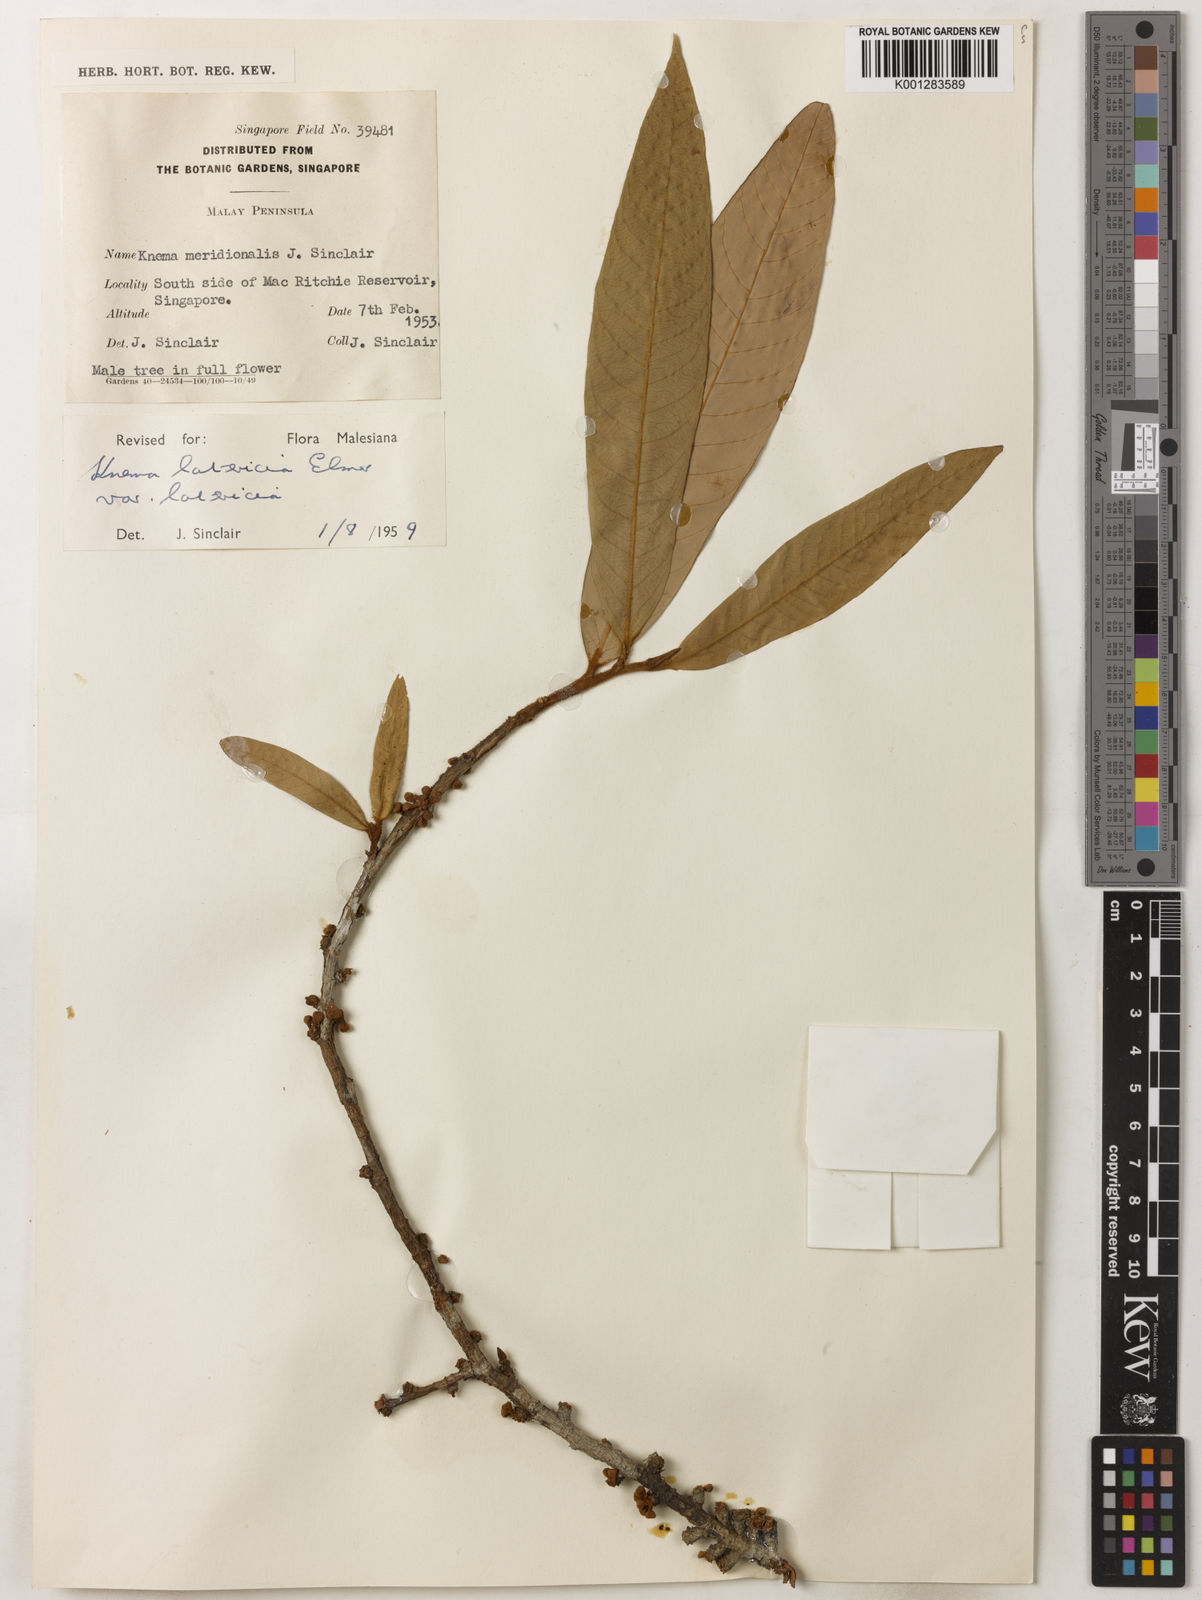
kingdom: Plantae
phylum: Tracheophyta
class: Magnoliopsida
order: Magnoliales
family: Myristicaceae
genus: Knema
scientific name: Knema latericia
